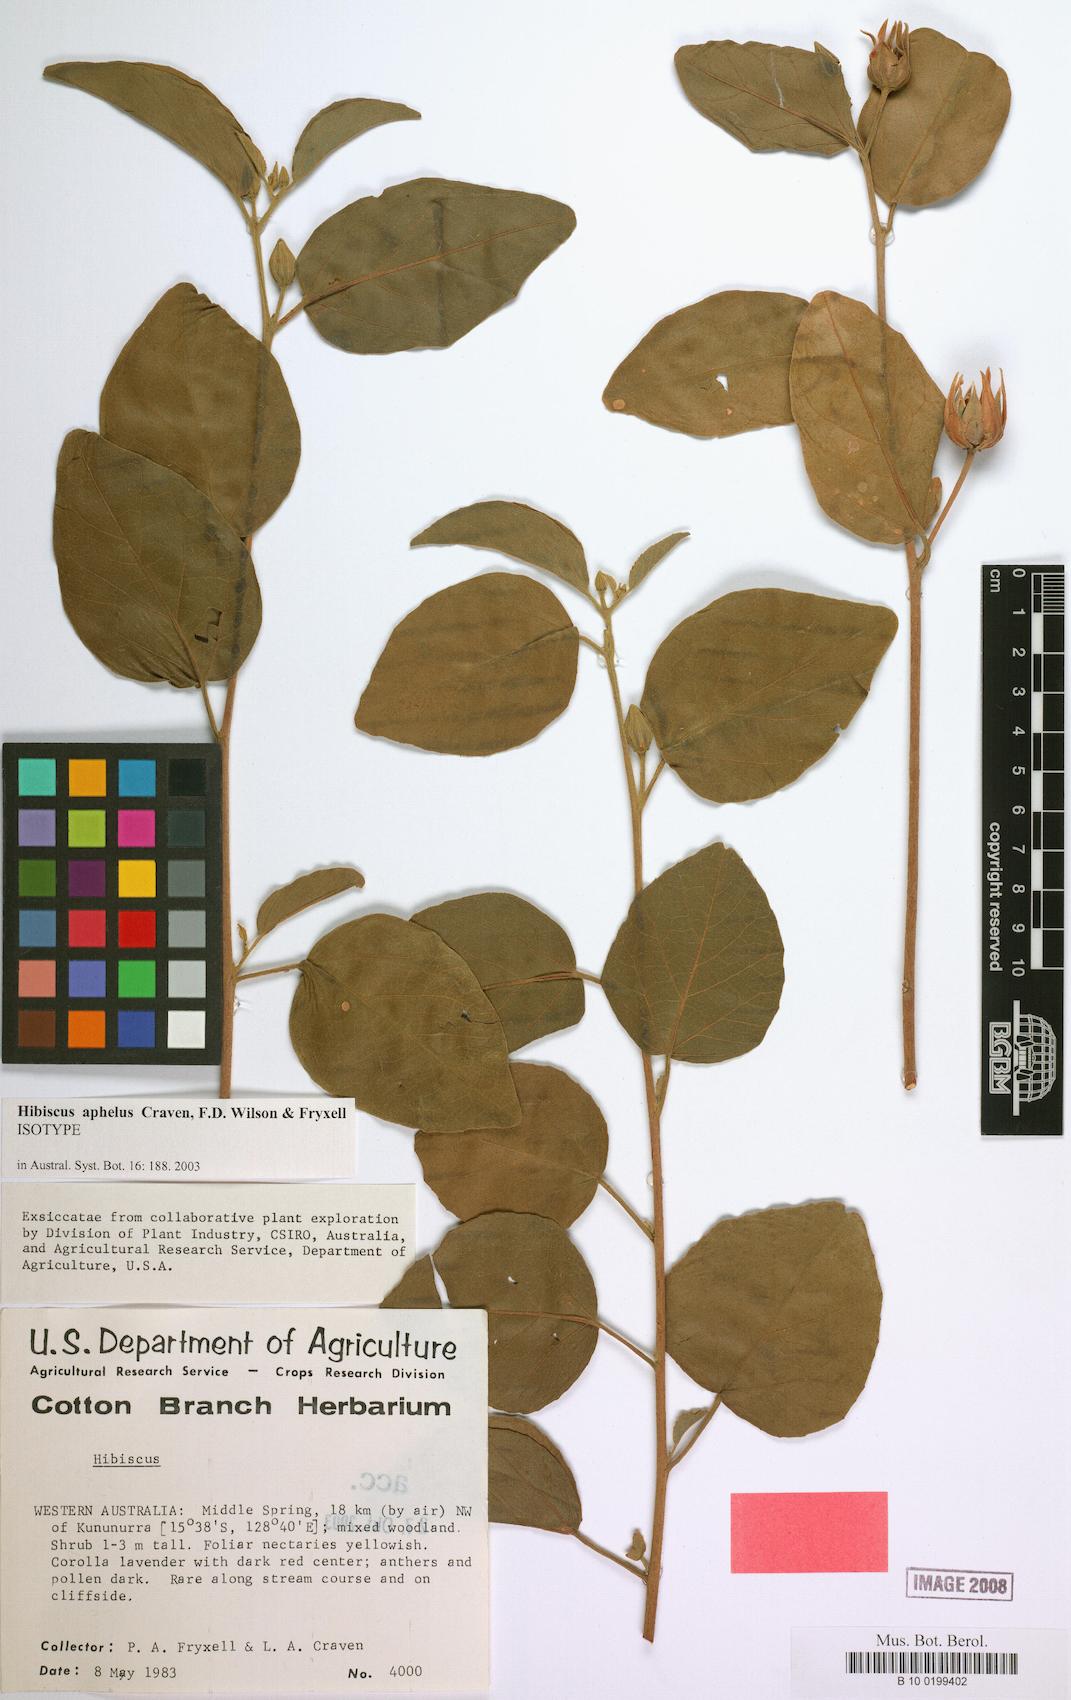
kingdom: Plantae
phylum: Tracheophyta
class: Magnoliopsida
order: Malvales
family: Malvaceae
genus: Hibiscus
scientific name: Hibiscus aphelus
